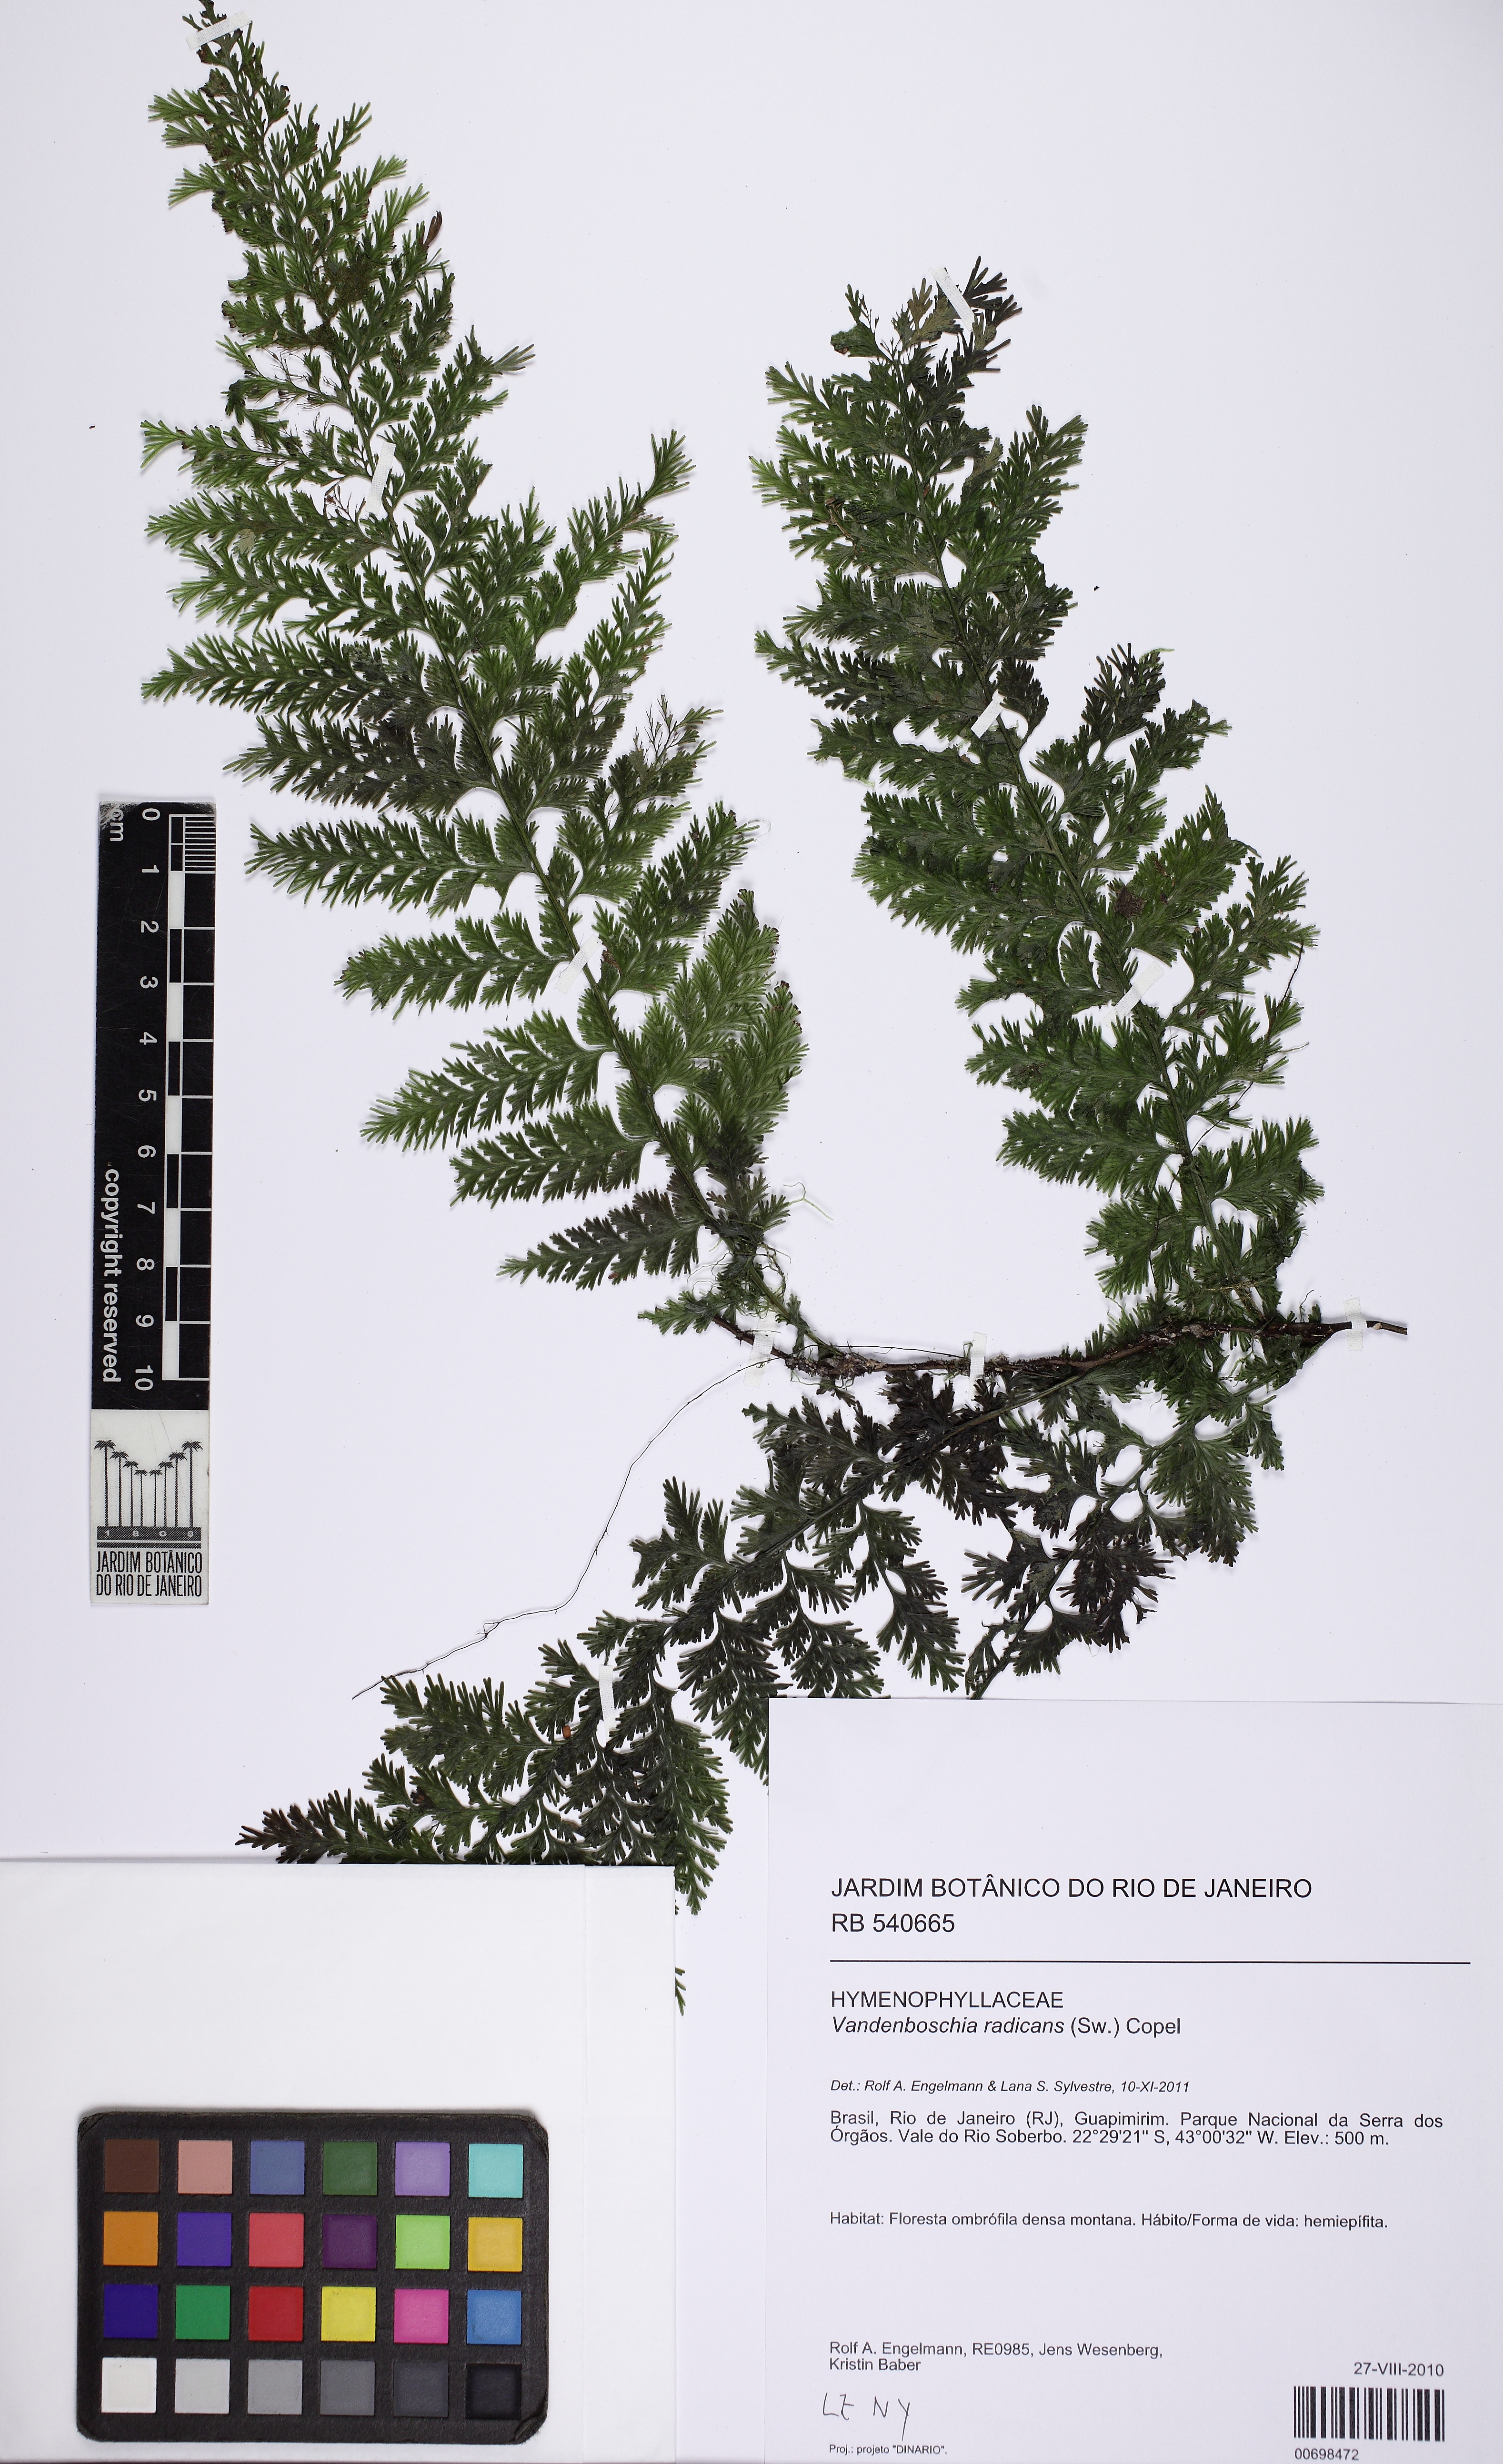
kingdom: Plantae
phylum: Tracheophyta
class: Polypodiopsida
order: Hymenophyllales
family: Hymenophyllaceae
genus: Vandenboschia
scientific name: Vandenboschia radicans
